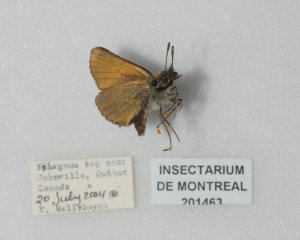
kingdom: Animalia
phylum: Arthropoda
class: Insecta
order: Lepidoptera
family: Hesperiidae
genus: Thymelicus
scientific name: Thymelicus lineola
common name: European Skipper
